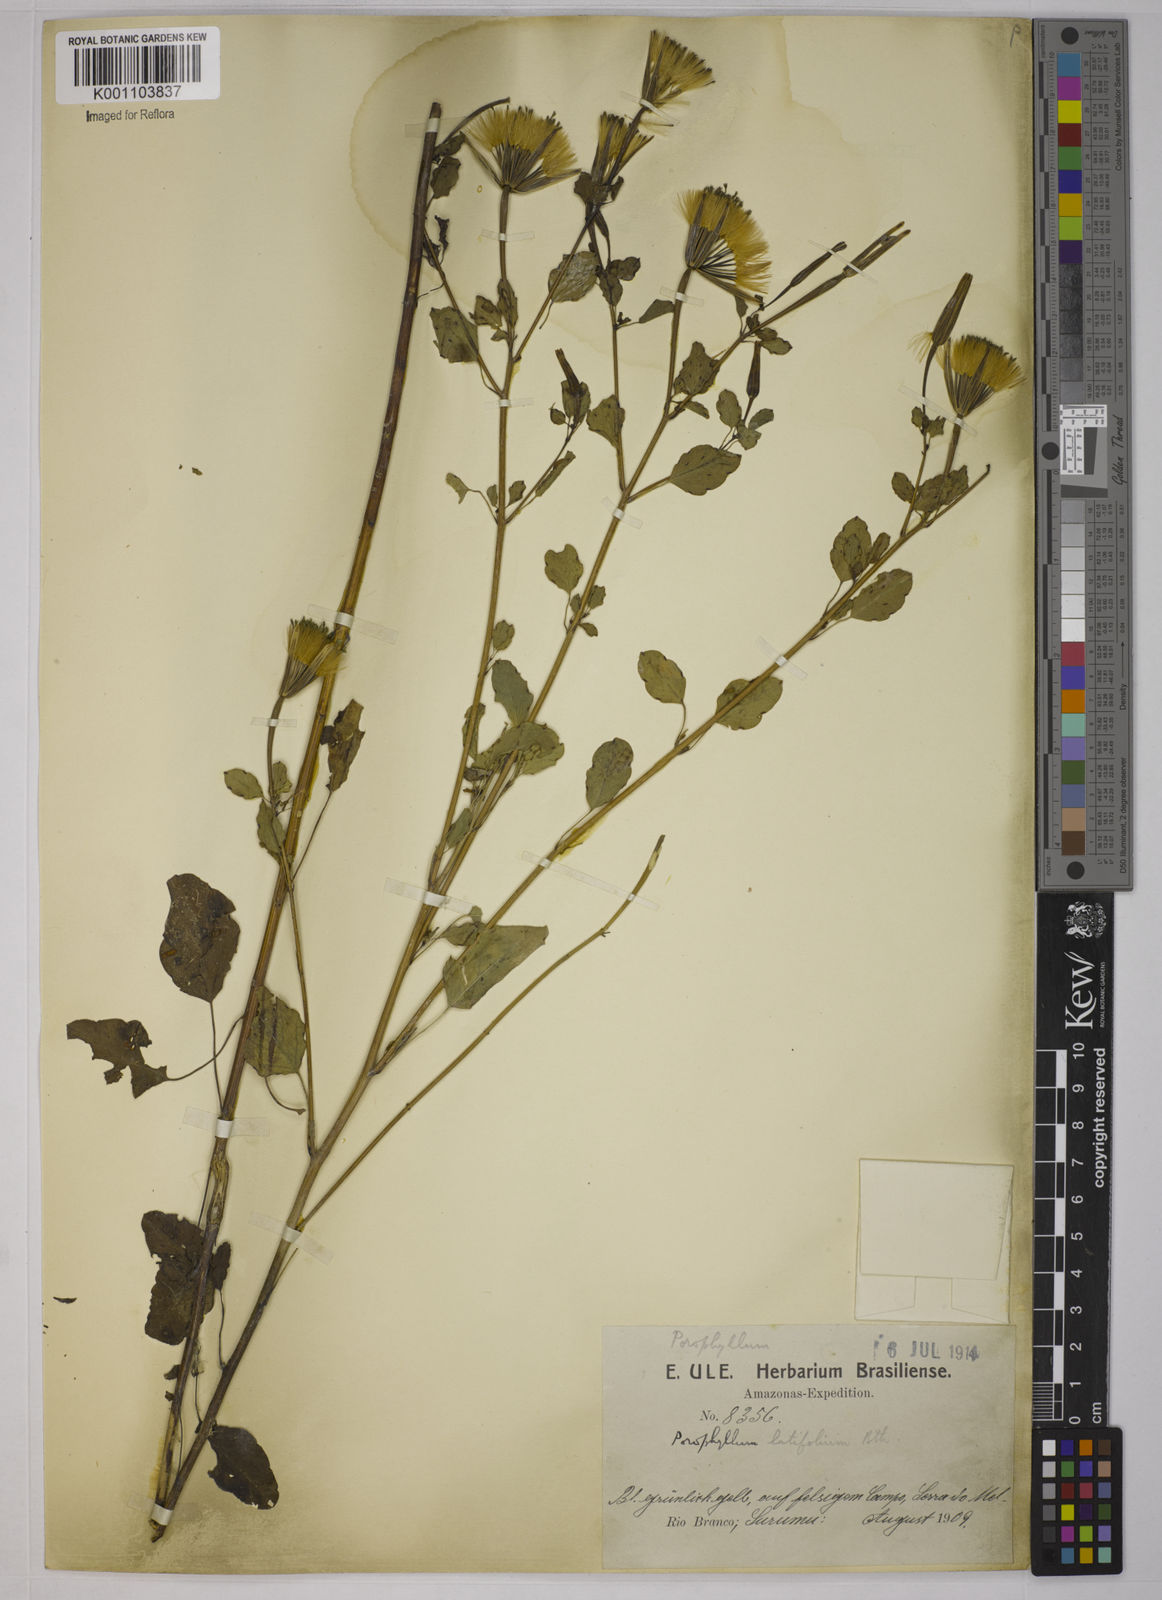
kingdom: Plantae
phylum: Tracheophyta
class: Magnoliopsida
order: Asterales
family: Asteraceae
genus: Porophyllum
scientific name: Porophyllum ruderale
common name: Yerba porosa
